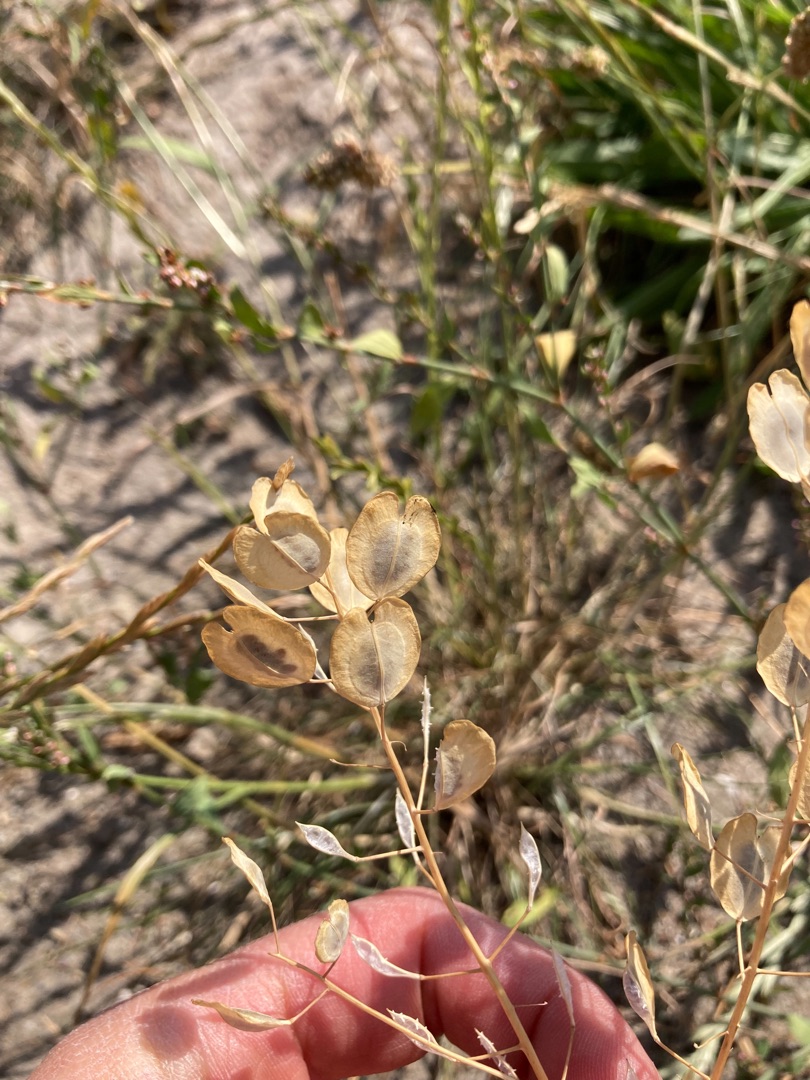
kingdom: Plantae
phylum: Tracheophyta
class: Magnoliopsida
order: Brassicales
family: Brassicaceae
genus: Thlaspi
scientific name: Thlaspi arvense
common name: Almindelig pengeurt
